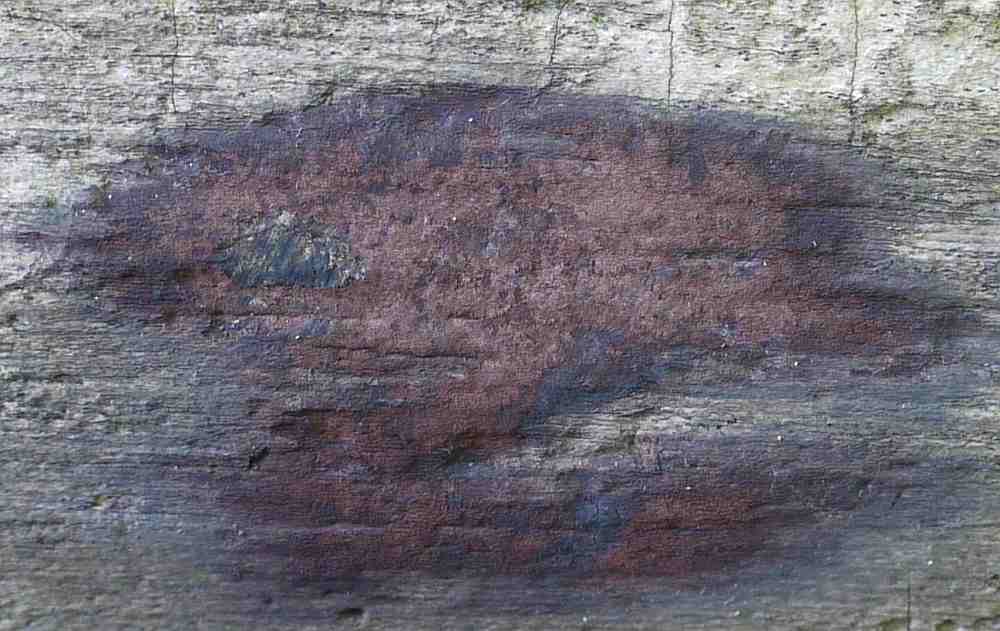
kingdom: Fungi
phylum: Ascomycota
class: Sordariomycetes
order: Xylariales
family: Hypoxylaceae
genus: Hypoxylon
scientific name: Hypoxylon macrocarpum
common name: skorpe-kulbær
